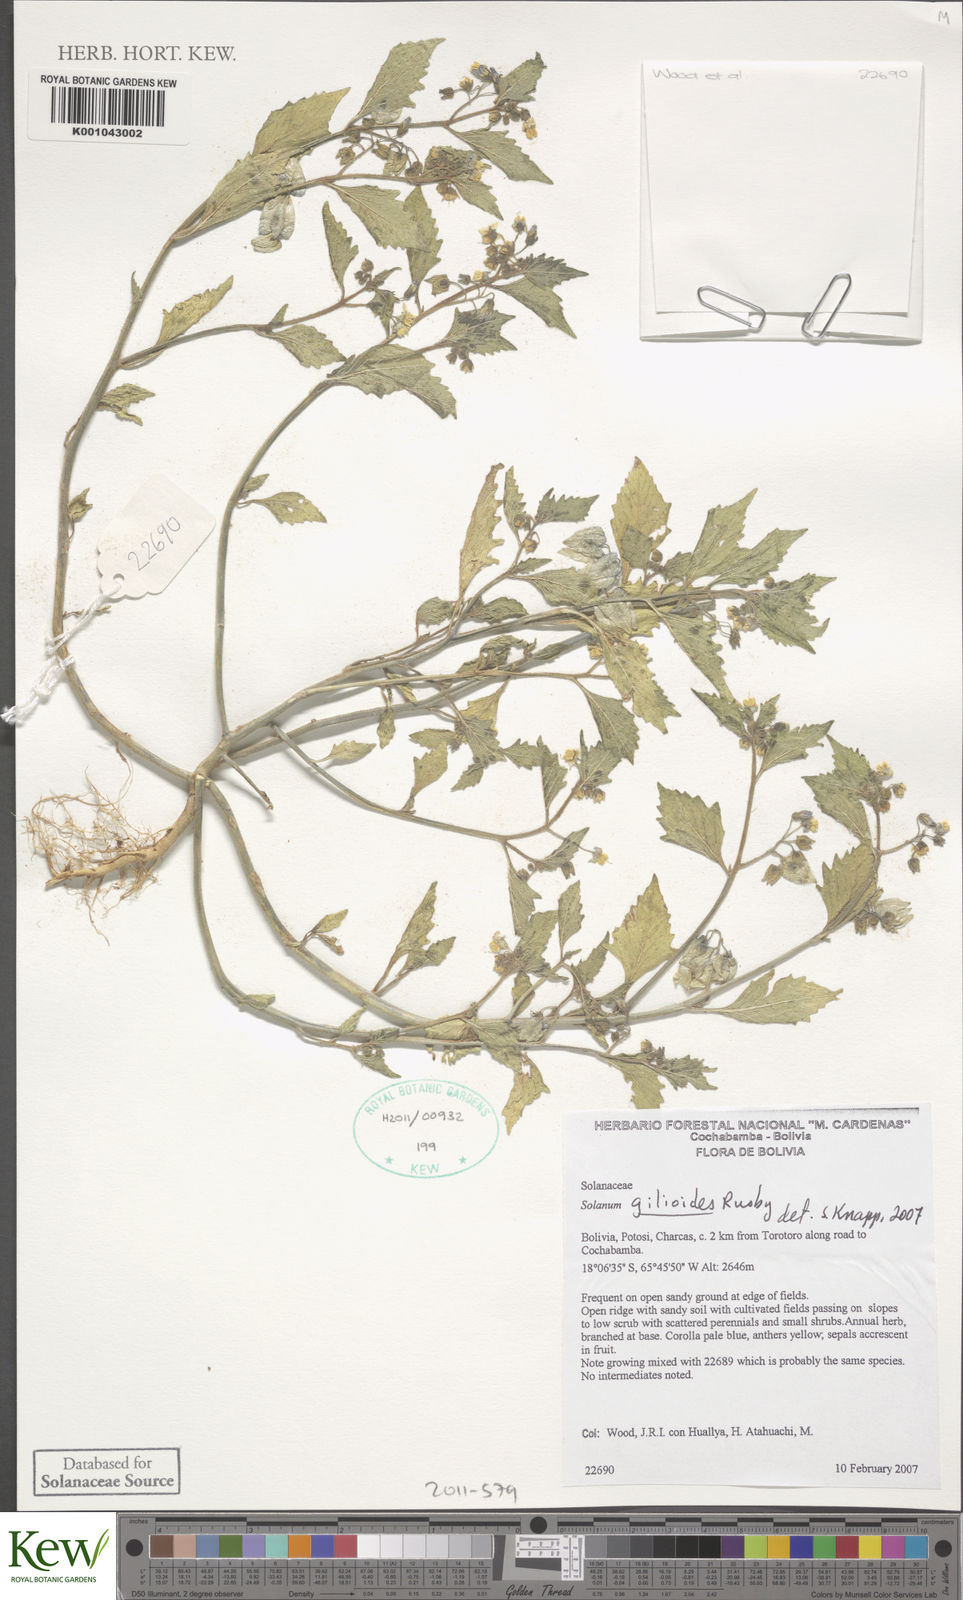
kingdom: Plantae
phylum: Tracheophyta
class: Magnoliopsida
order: Solanales
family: Solanaceae
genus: Solanum
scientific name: Solanum gilioides
